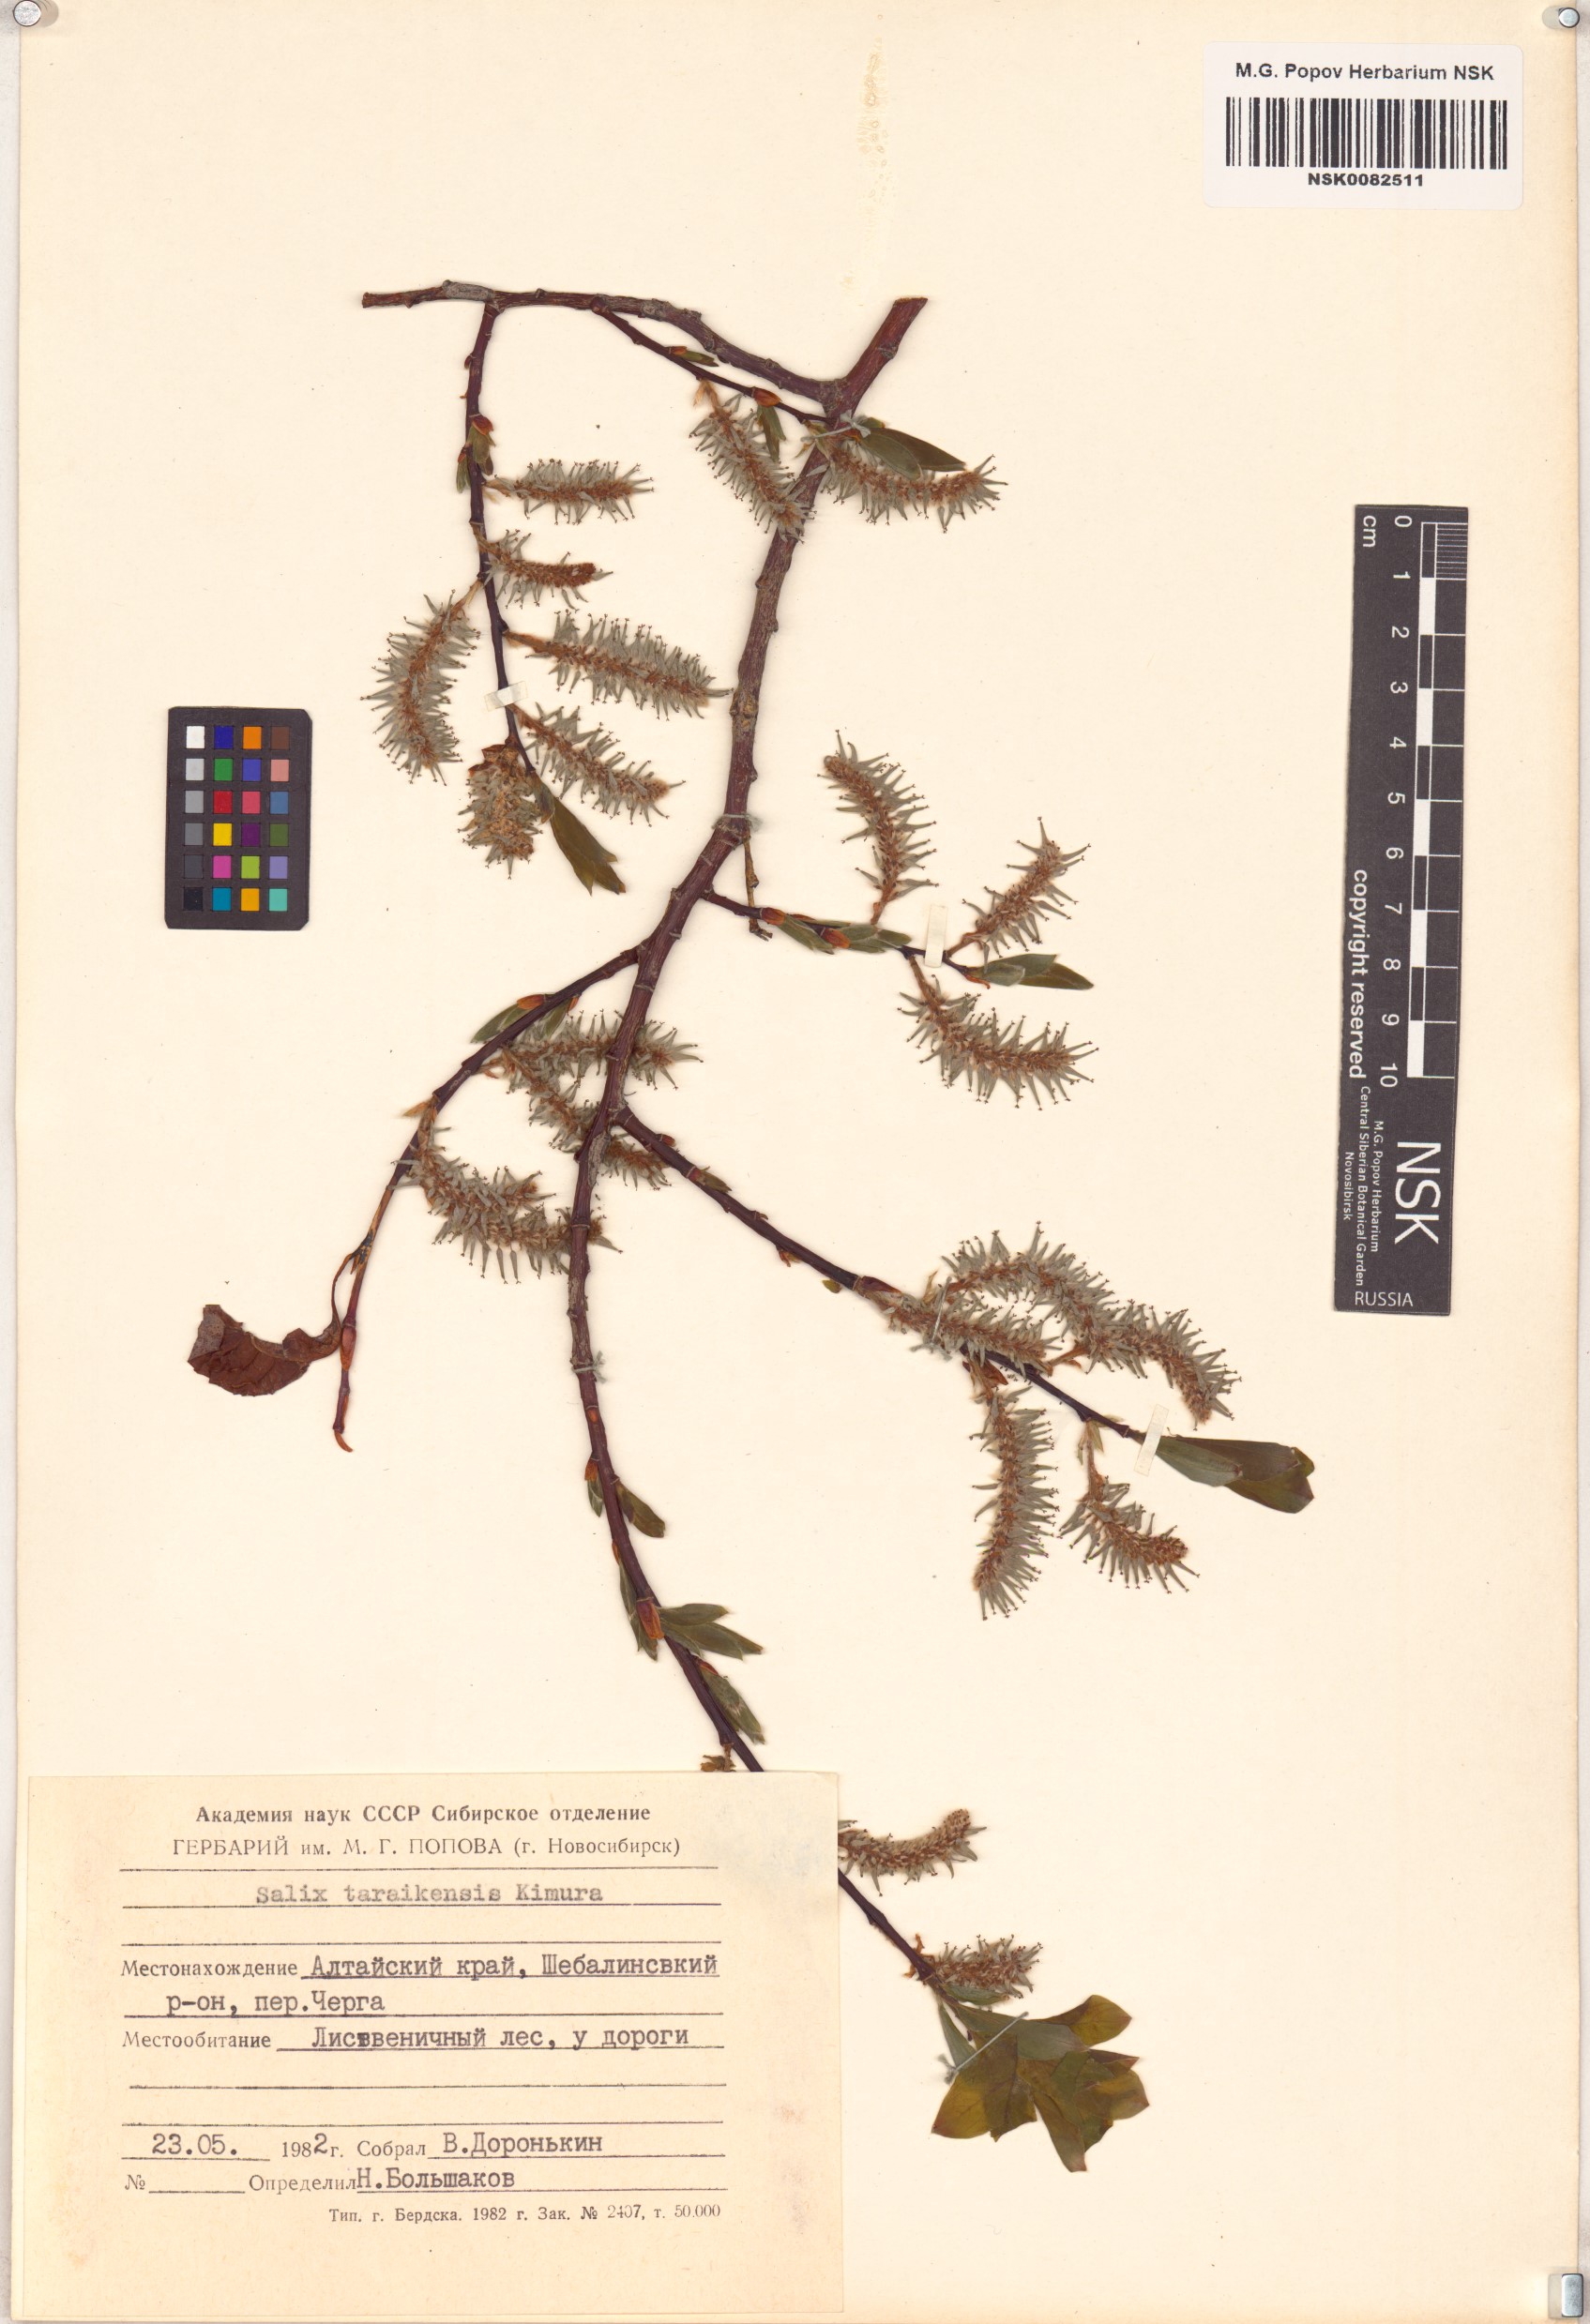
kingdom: Plantae
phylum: Tracheophyta
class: Magnoliopsida
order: Malpighiales
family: Salicaceae
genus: Salix
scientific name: Salix taraikensis
